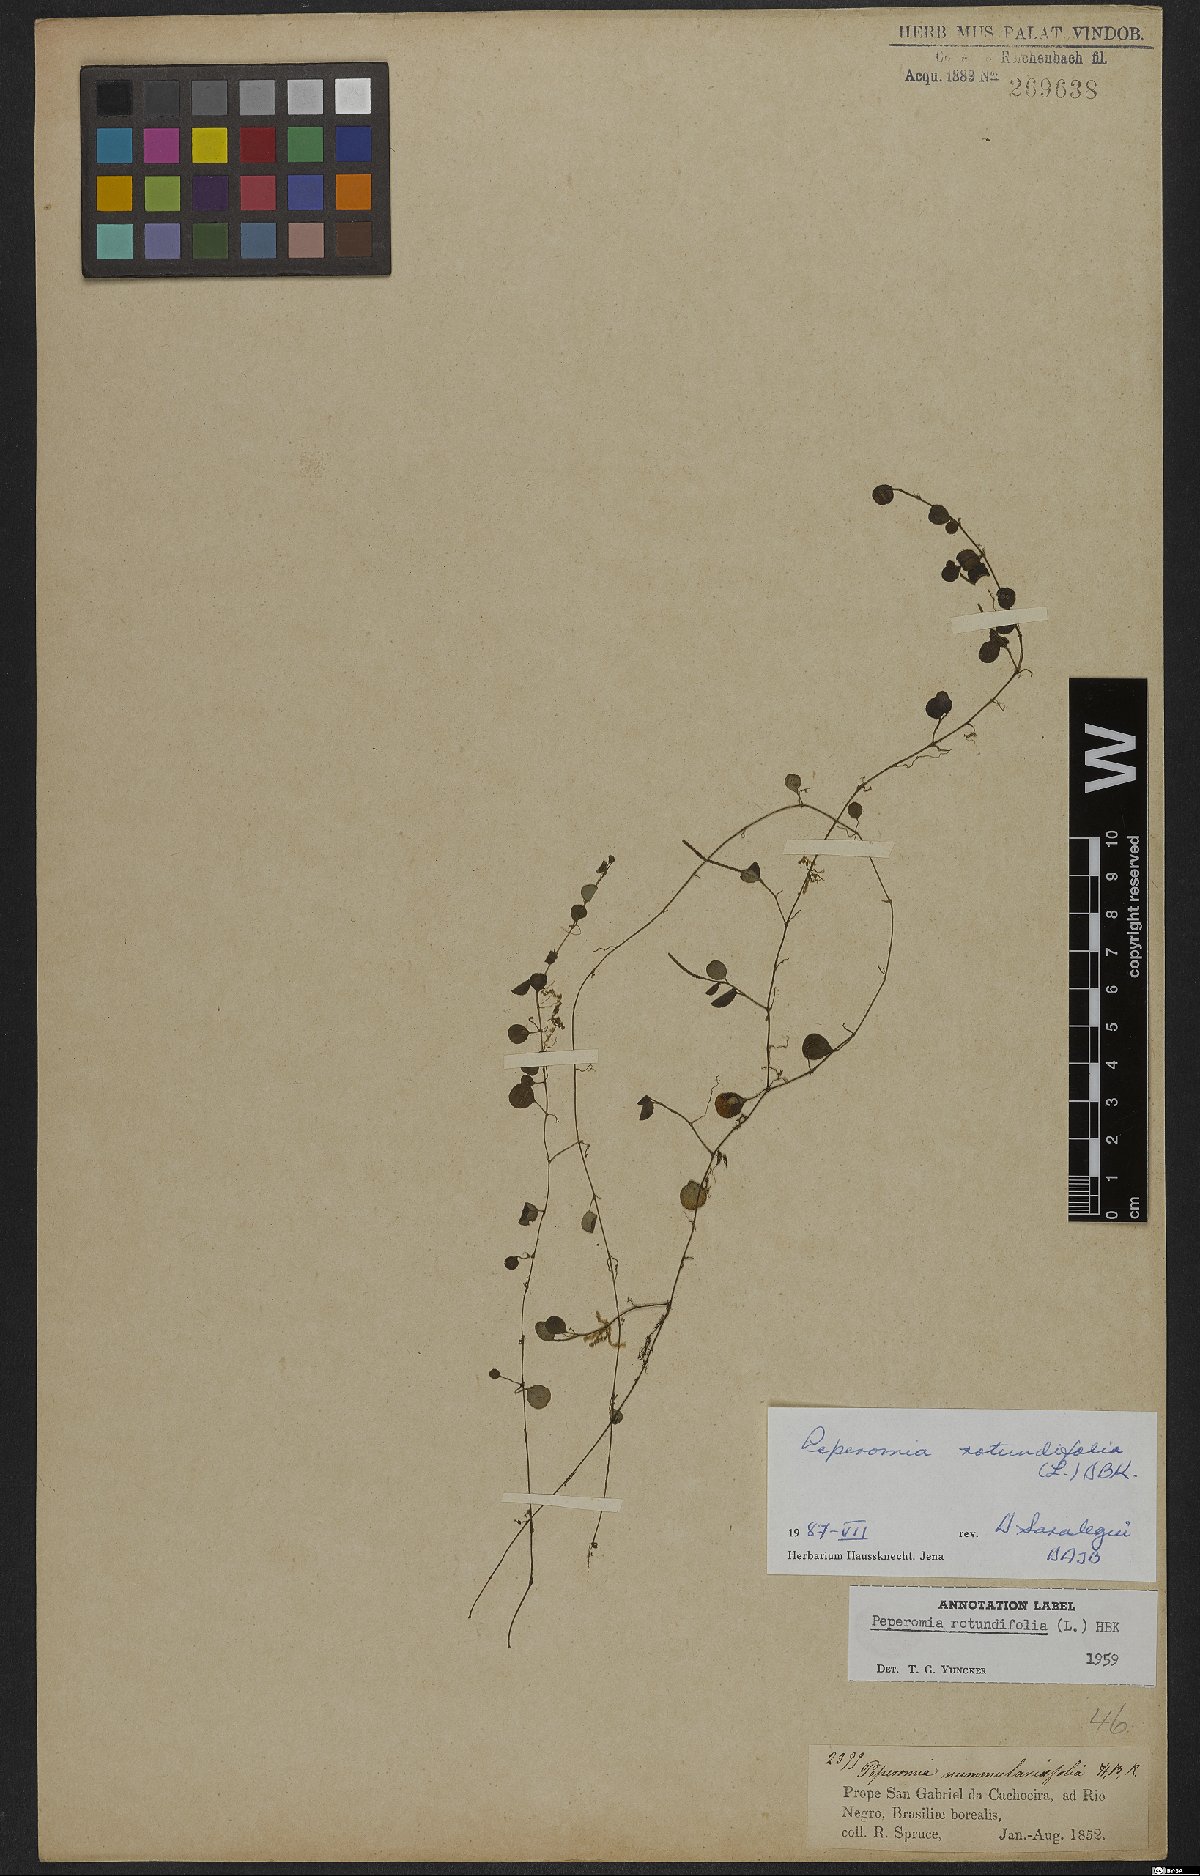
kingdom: Plantae
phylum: Tracheophyta
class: Magnoliopsida
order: Piperales
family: Piperaceae
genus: Peperomia
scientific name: Peperomia rotundifolia
